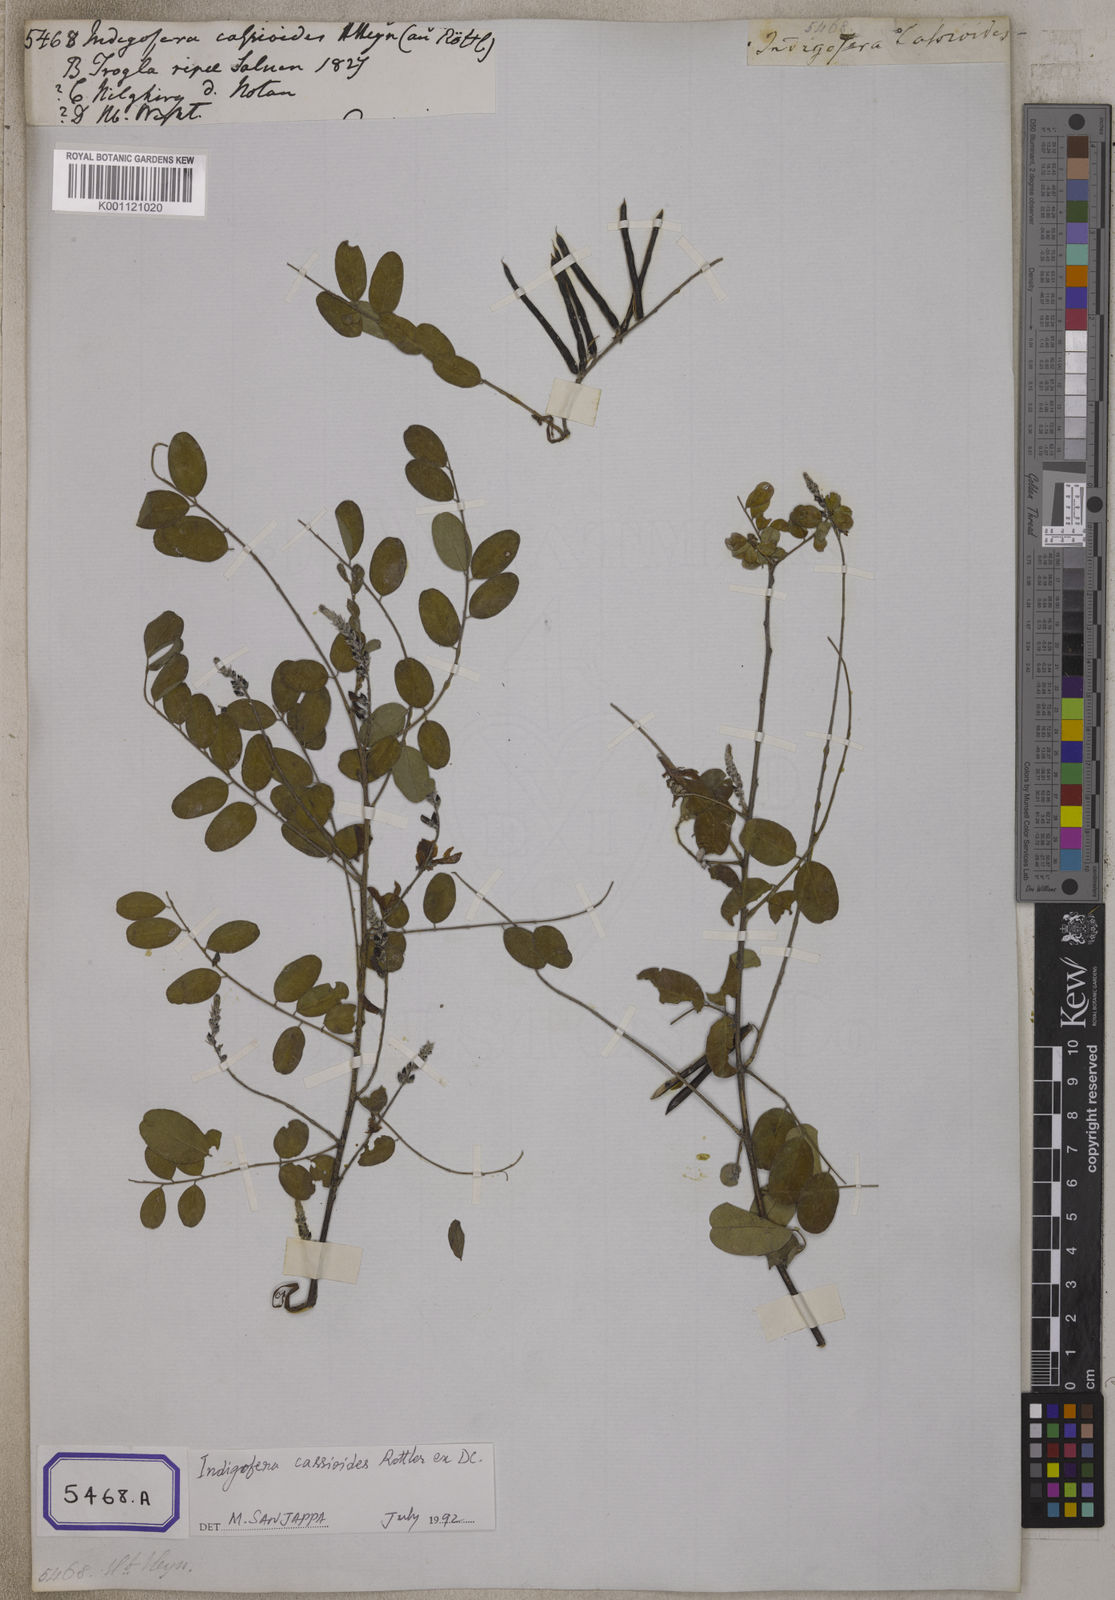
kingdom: Plantae
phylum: Tracheophyta
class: Magnoliopsida
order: Fabales
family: Fabaceae
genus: Indigofera
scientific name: Indigofera cassioides
